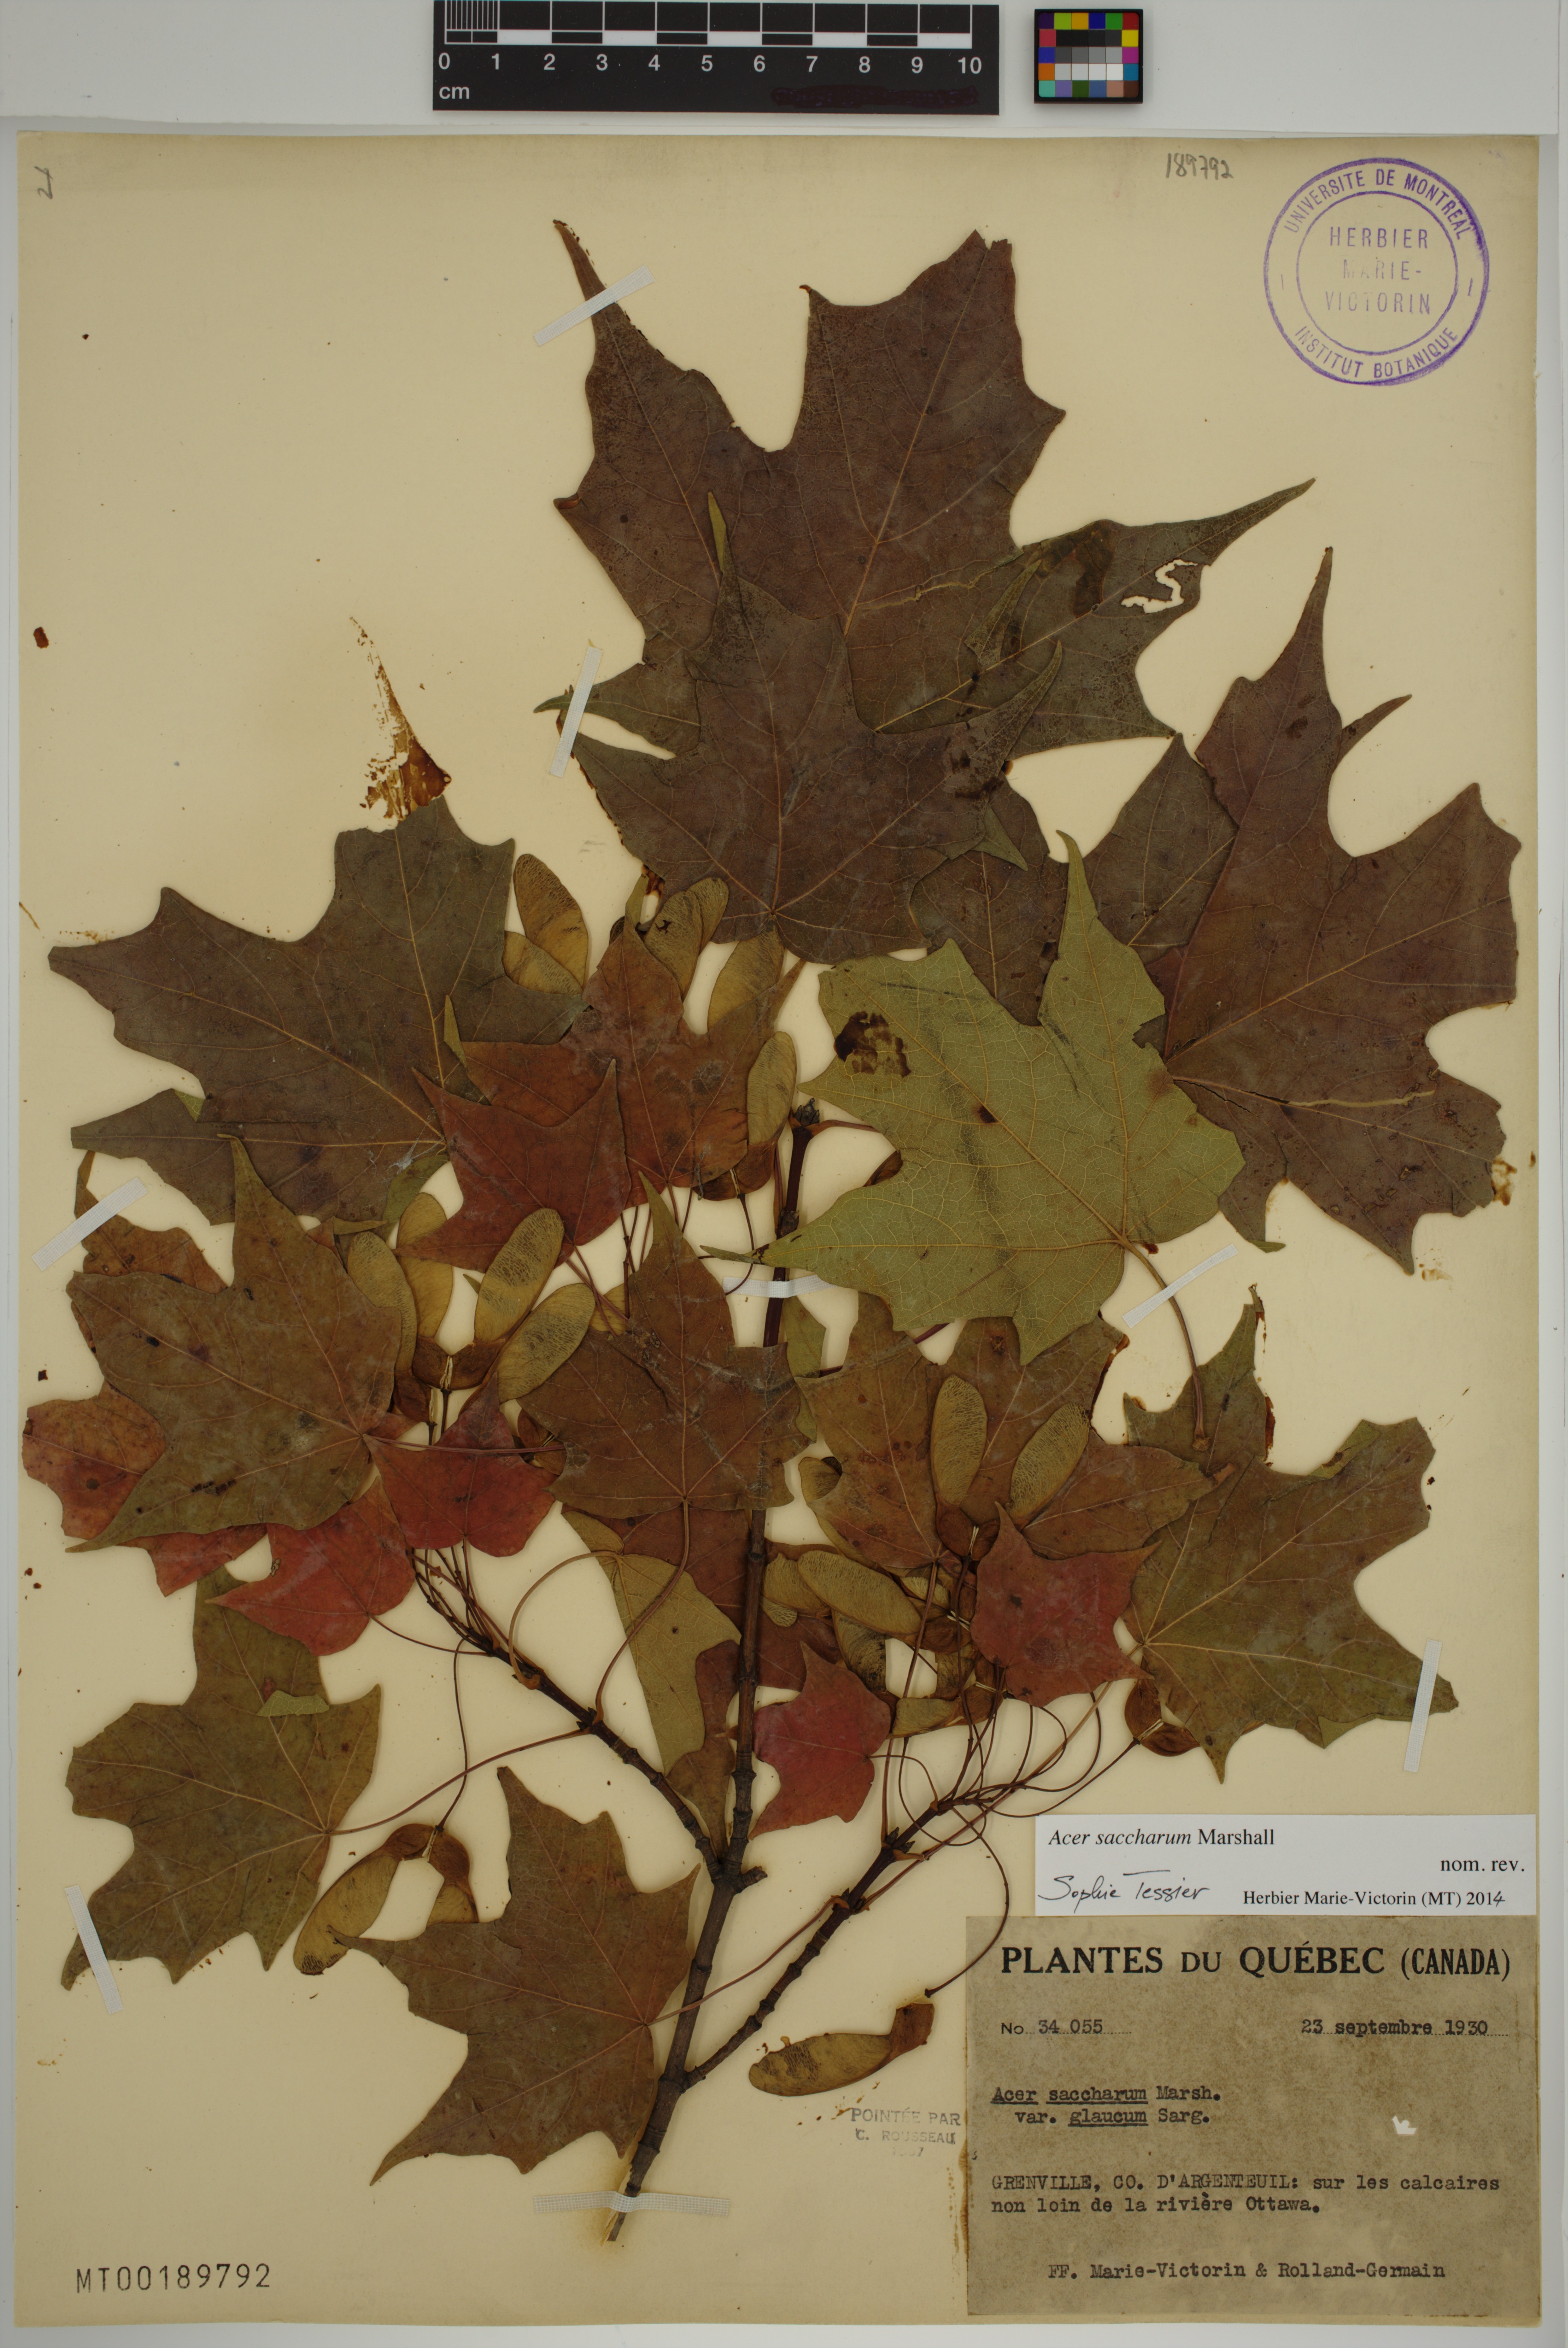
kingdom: Plantae
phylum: Tracheophyta
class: Magnoliopsida
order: Sapindales
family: Sapindaceae
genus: Acer
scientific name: Acer saccharum
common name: Sugar maple
